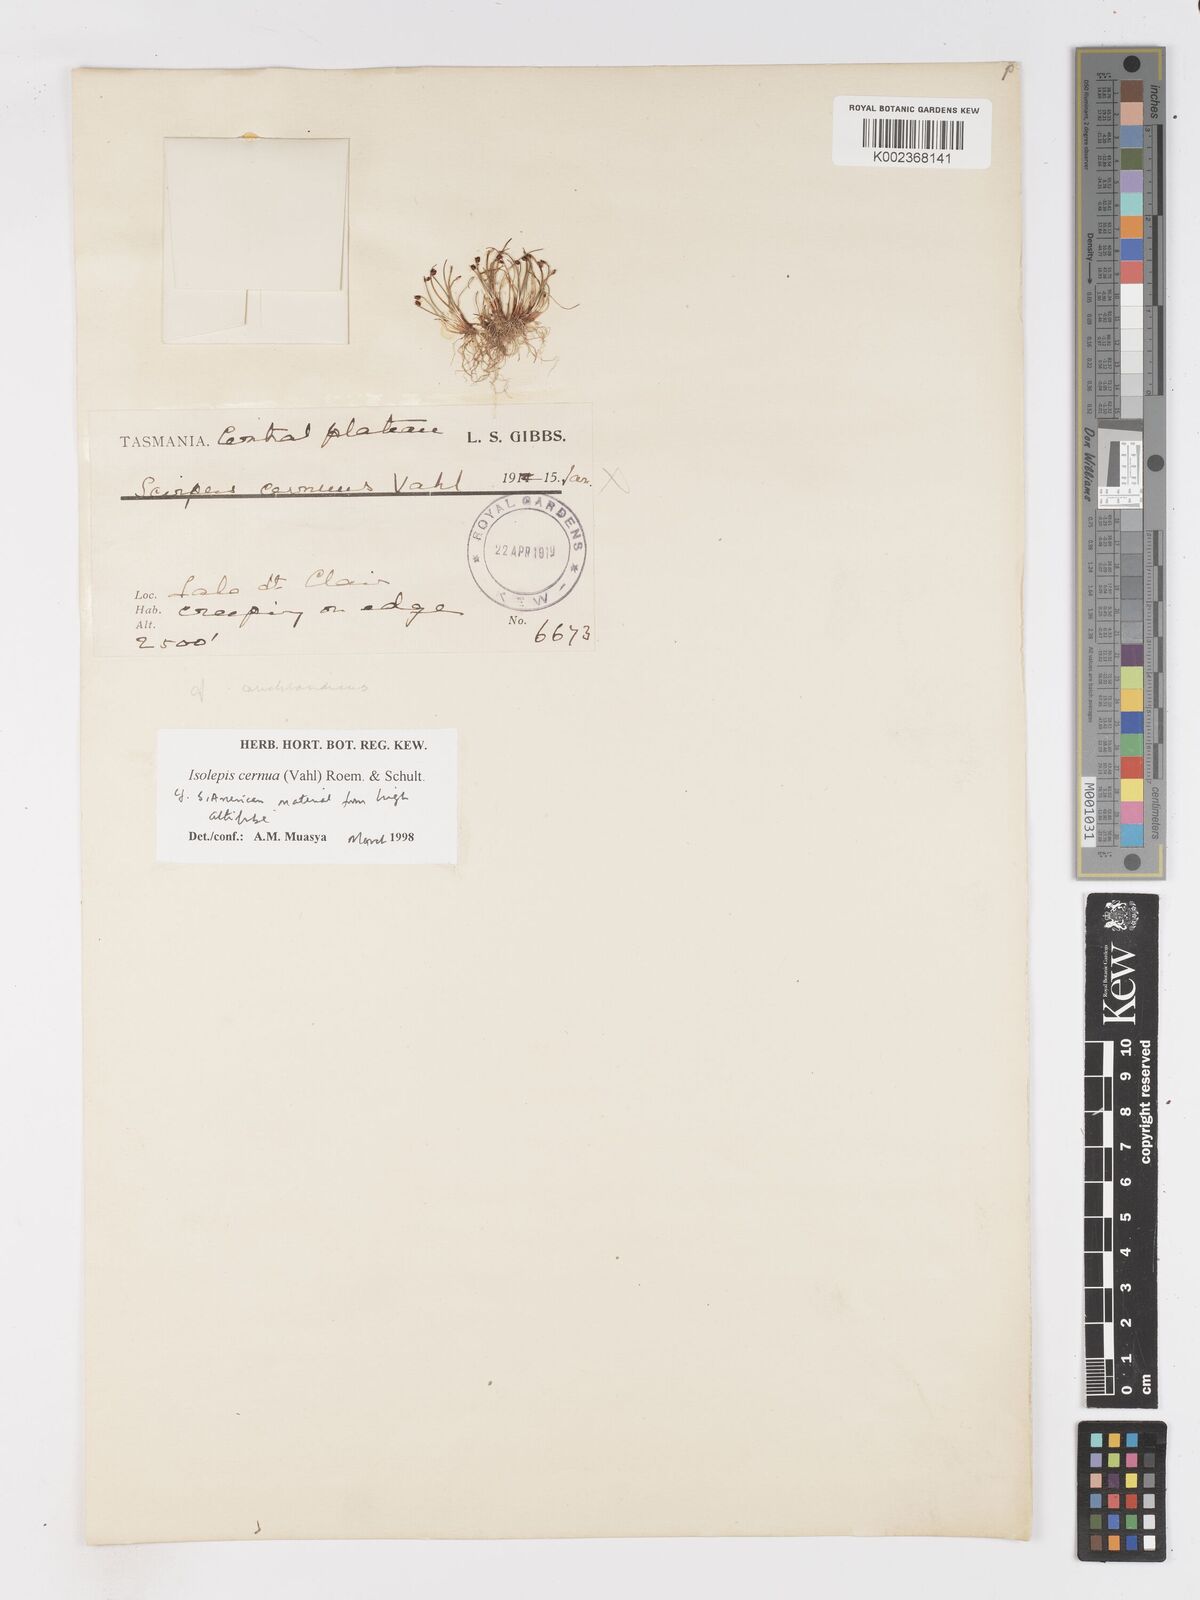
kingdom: Plantae
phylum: Tracheophyta
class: Liliopsida
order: Poales
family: Cyperaceae
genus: Isolepis
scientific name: Isolepis aucklandica
